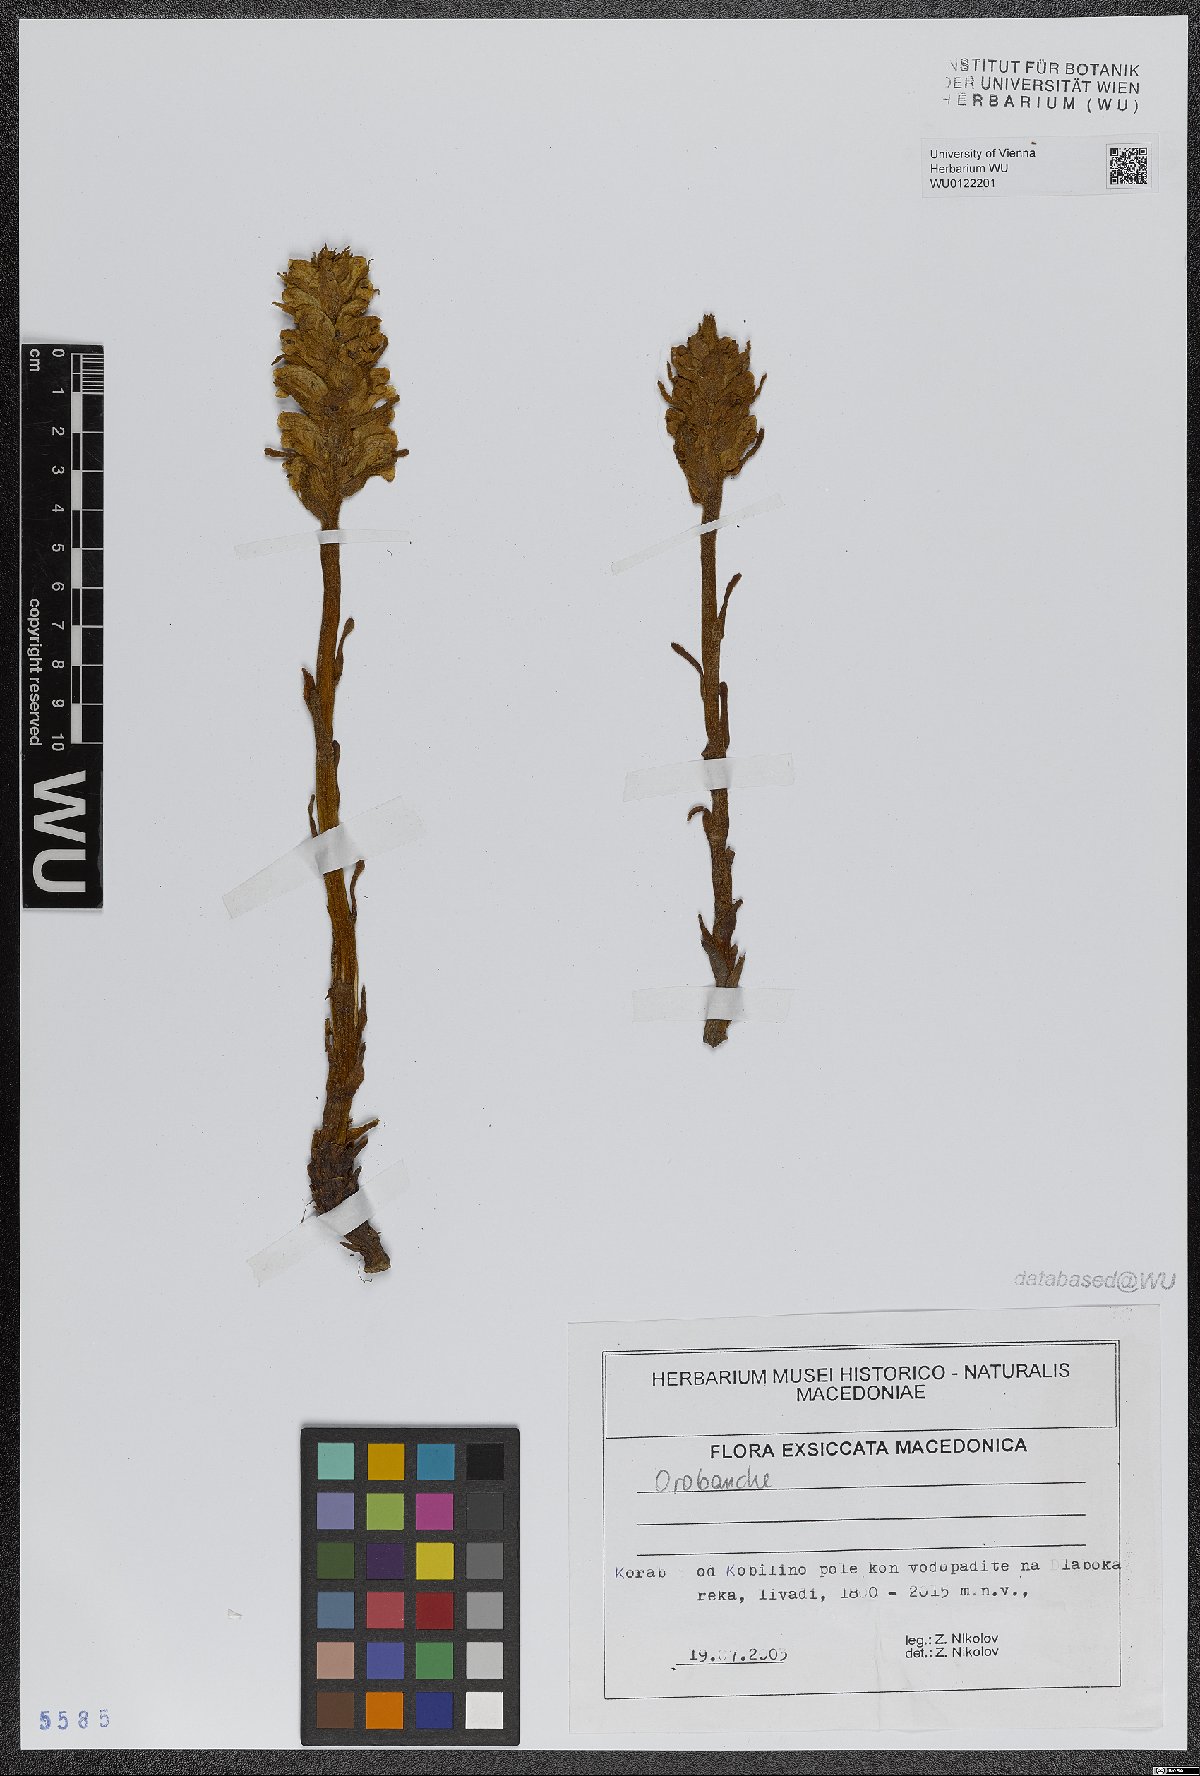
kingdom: Plantae
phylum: Tracheophyta
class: Magnoliopsida
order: Lamiales
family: Orobanchaceae
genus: Orobanche
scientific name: Orobanche
